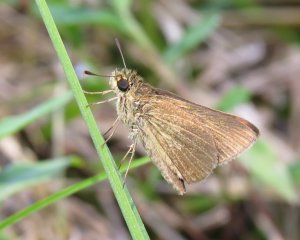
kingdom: Animalia
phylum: Arthropoda
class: Insecta
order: Lepidoptera
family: Hesperiidae
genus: Nastra
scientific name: Nastra lherminier
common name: Swarthy Skipper
